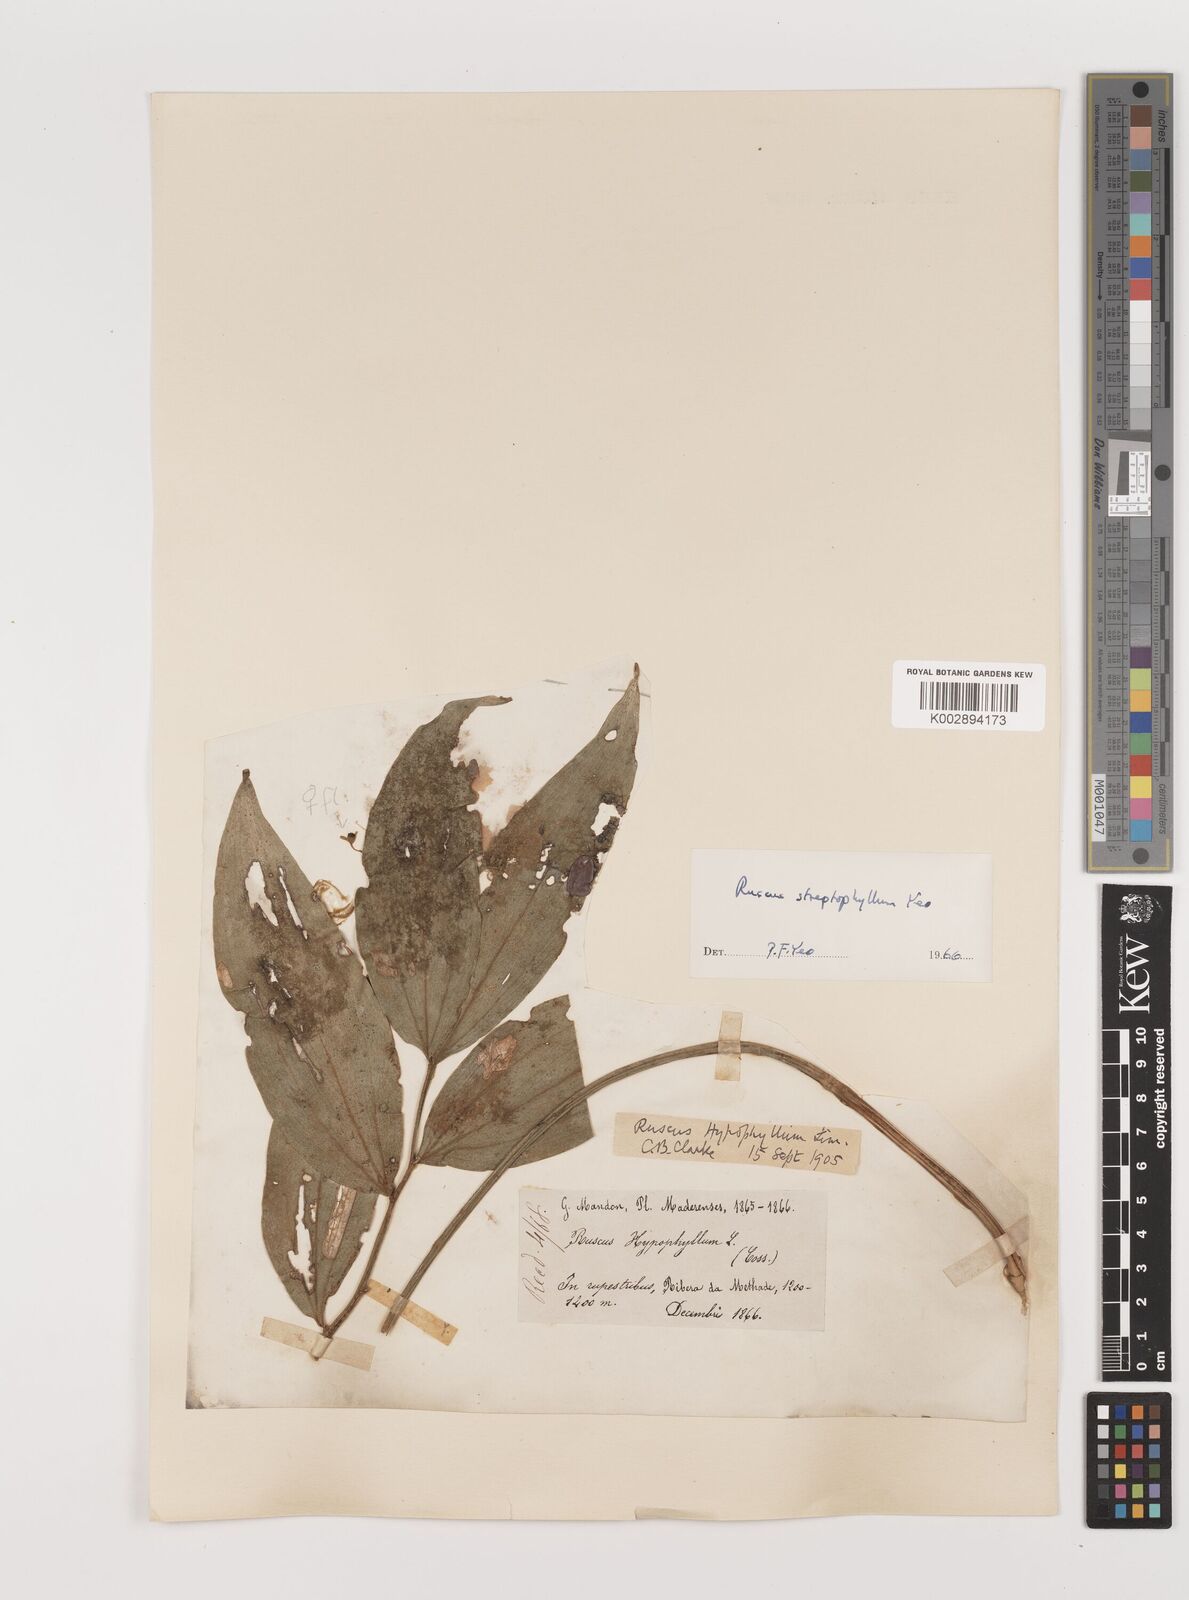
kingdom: Plantae
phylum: Tracheophyta
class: Liliopsida
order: Asparagales
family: Asparagaceae
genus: Ruscus
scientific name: Ruscus hypophyllum
